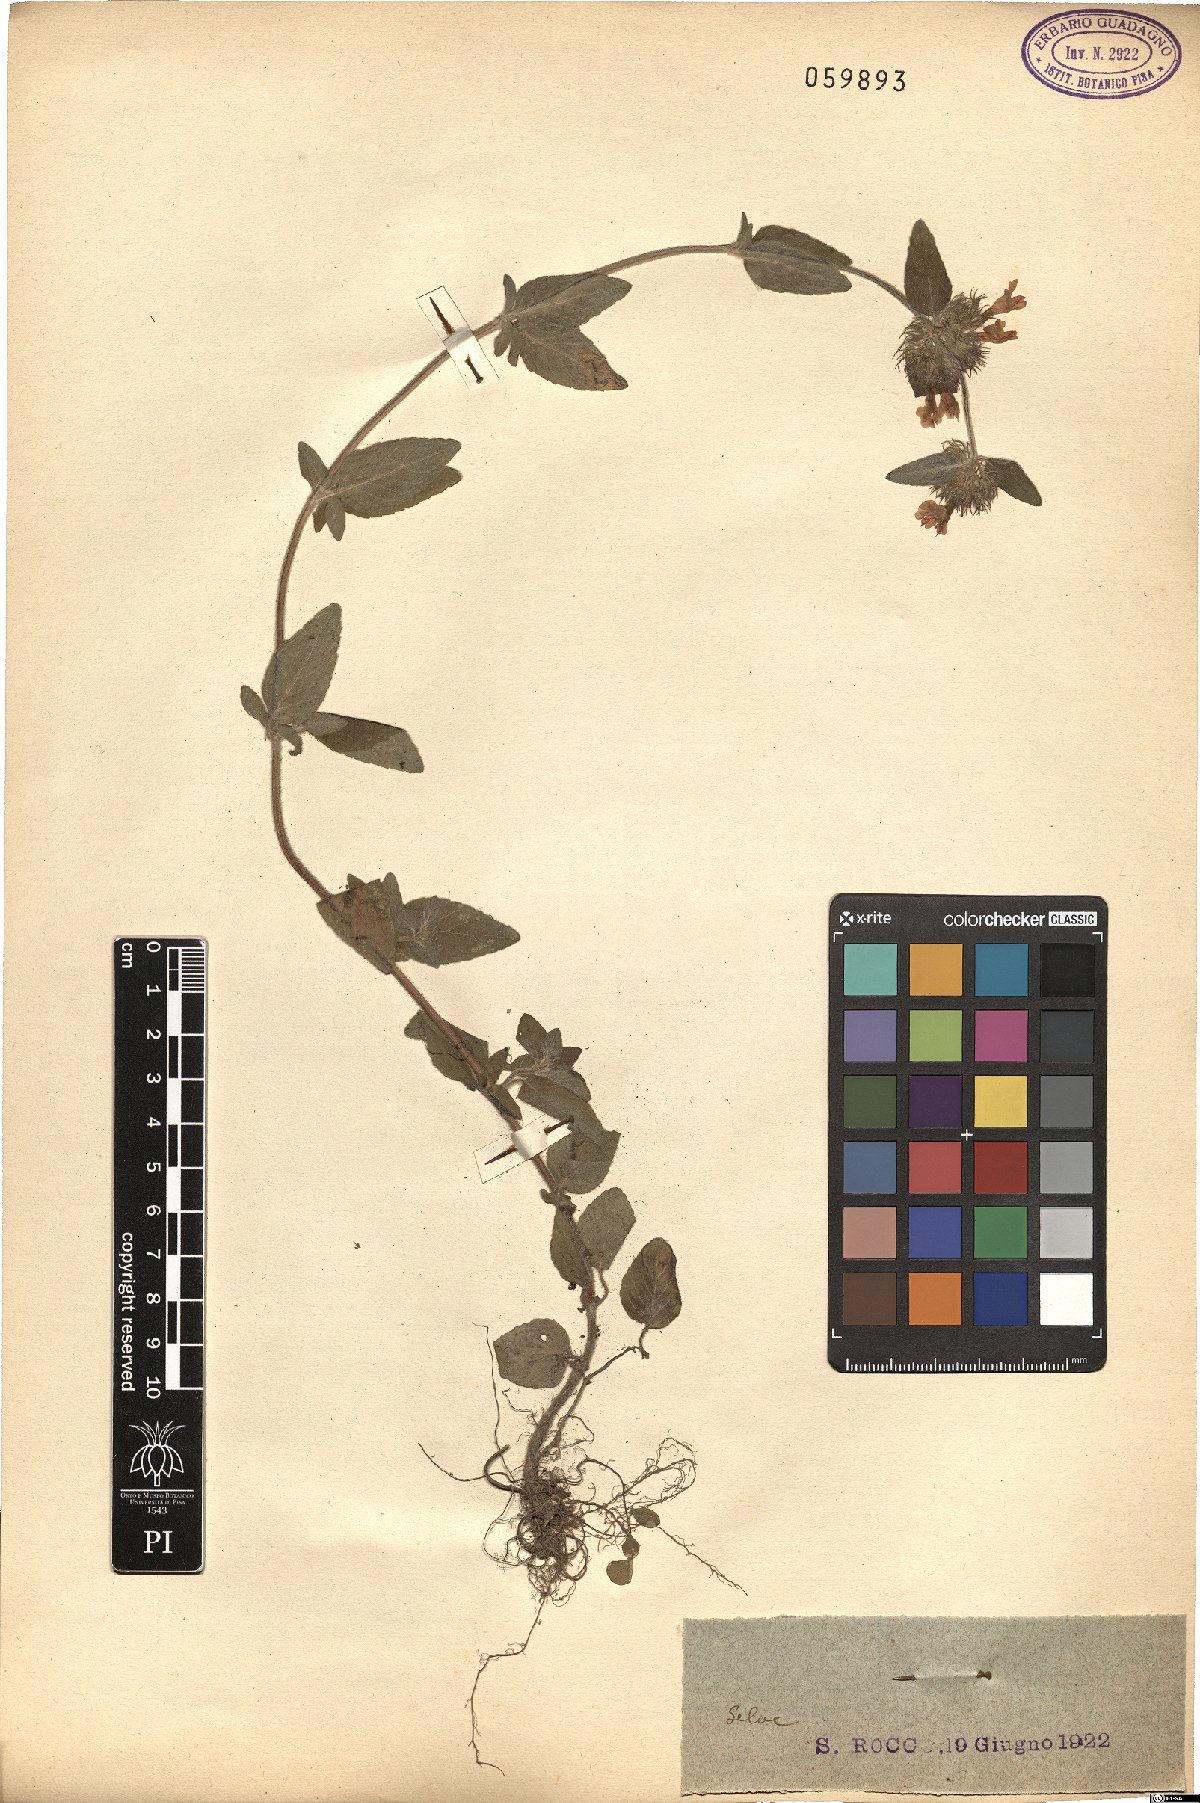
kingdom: Plantae
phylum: Tracheophyta
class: Magnoliopsida
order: Lamiales
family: Lamiaceae
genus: Clinopodium
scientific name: Clinopodium vulgare
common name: Wild basil
